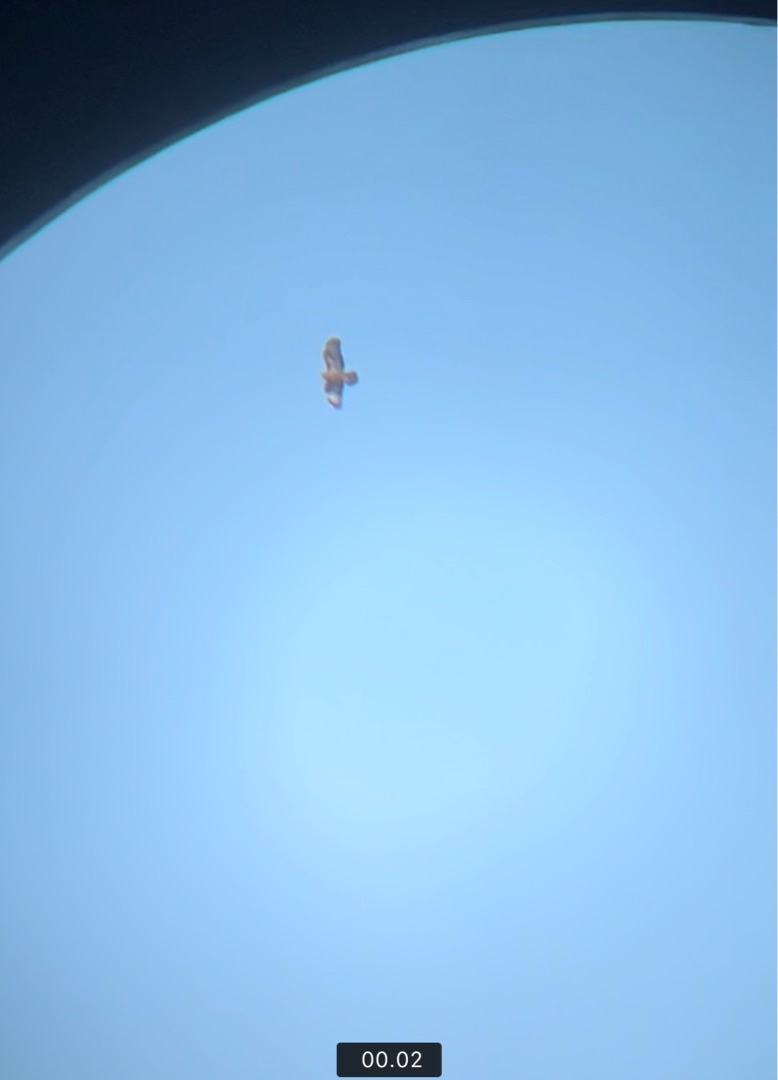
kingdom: Animalia
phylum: Chordata
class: Aves
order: Accipitriformes
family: Accipitridae
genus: Buteo
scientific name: Buteo buteo
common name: Musvåge
